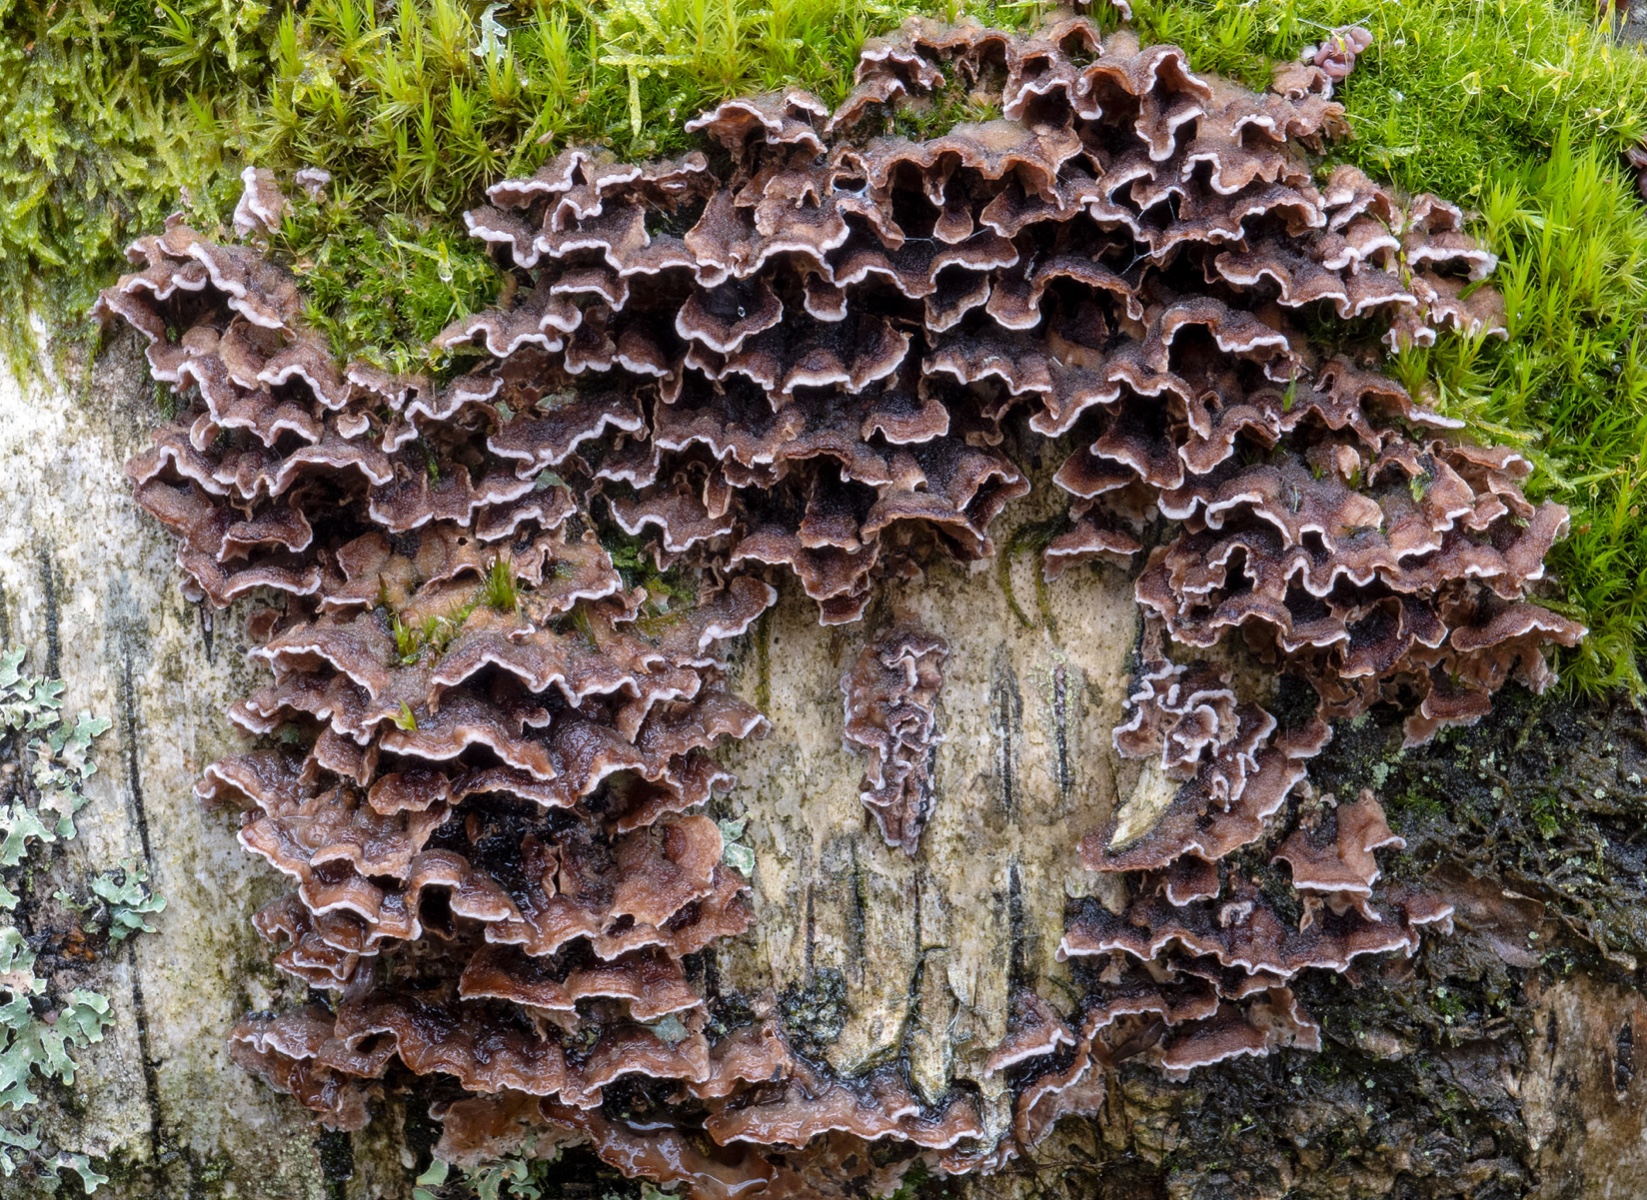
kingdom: Fungi
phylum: Basidiomycota
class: Agaricomycetes
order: Agaricales
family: Cyphellaceae
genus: Chondrostereum
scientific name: Chondrostereum purpureum
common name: purpurlædersvamp
